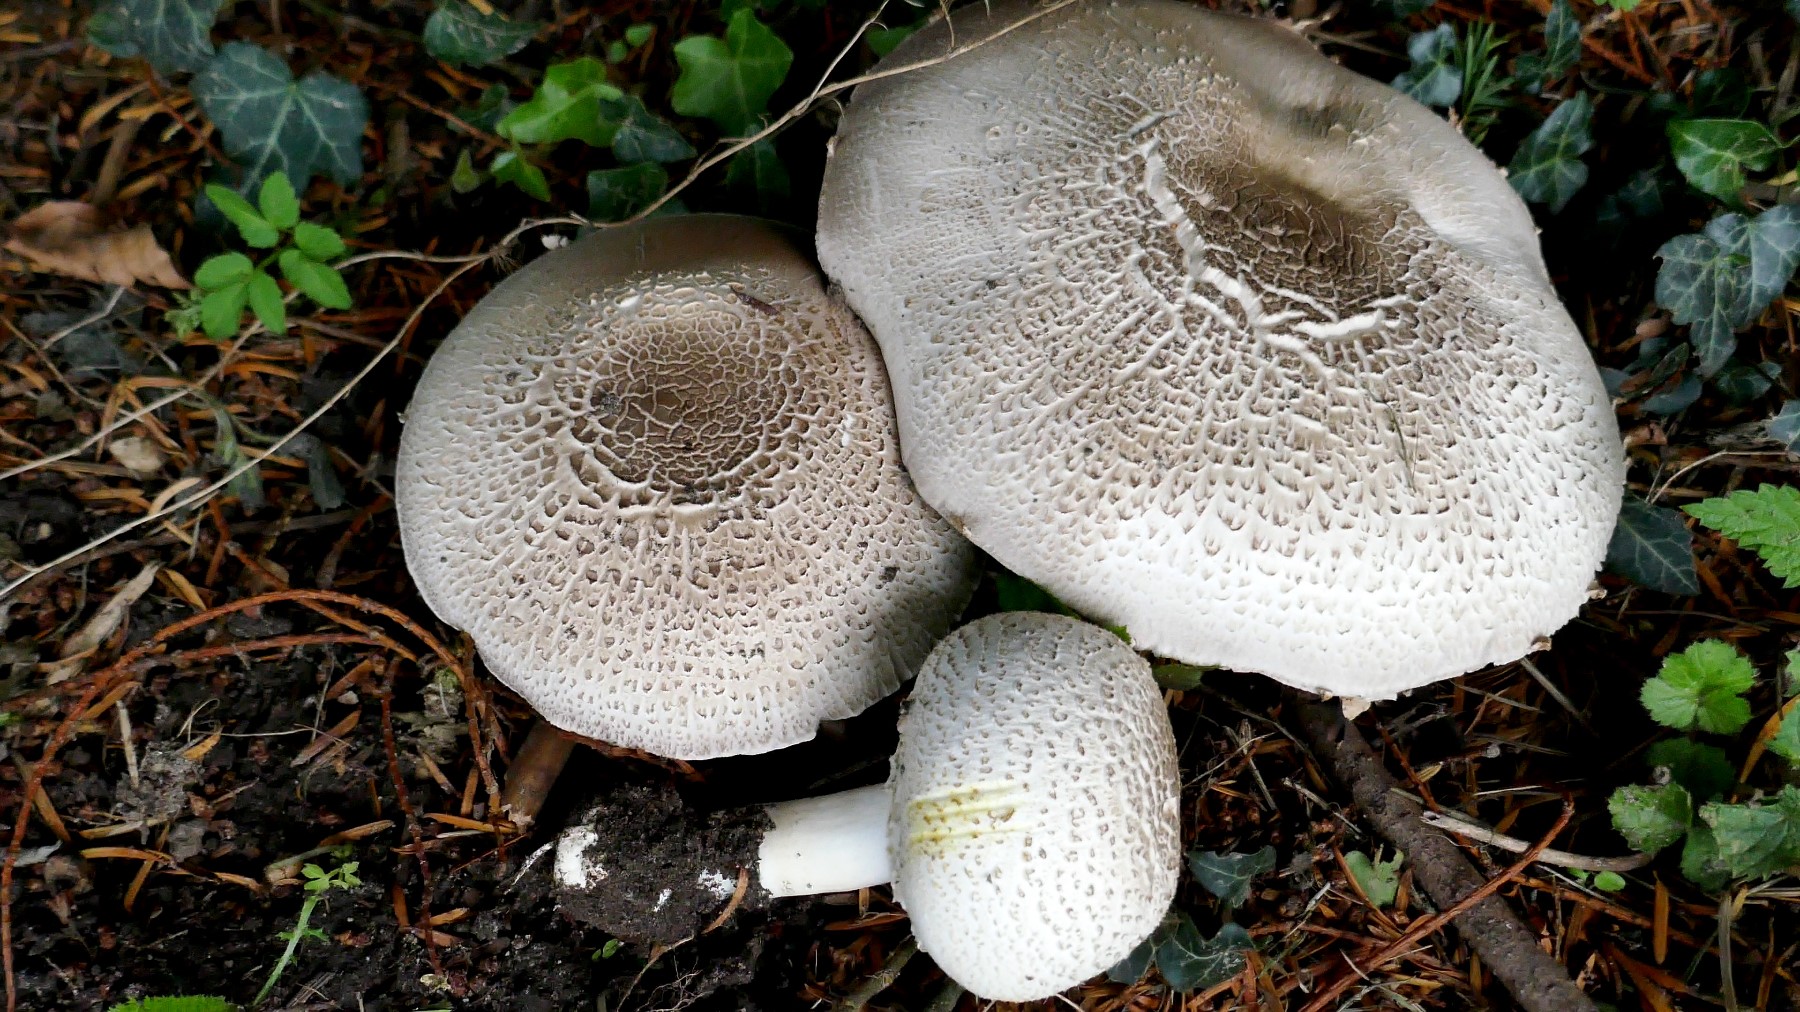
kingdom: Fungi
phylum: Basidiomycota
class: Agaricomycetes
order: Agaricales
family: Agaricaceae
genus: Agaricus
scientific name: Agaricus xanthodermus
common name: karbol-champignon
